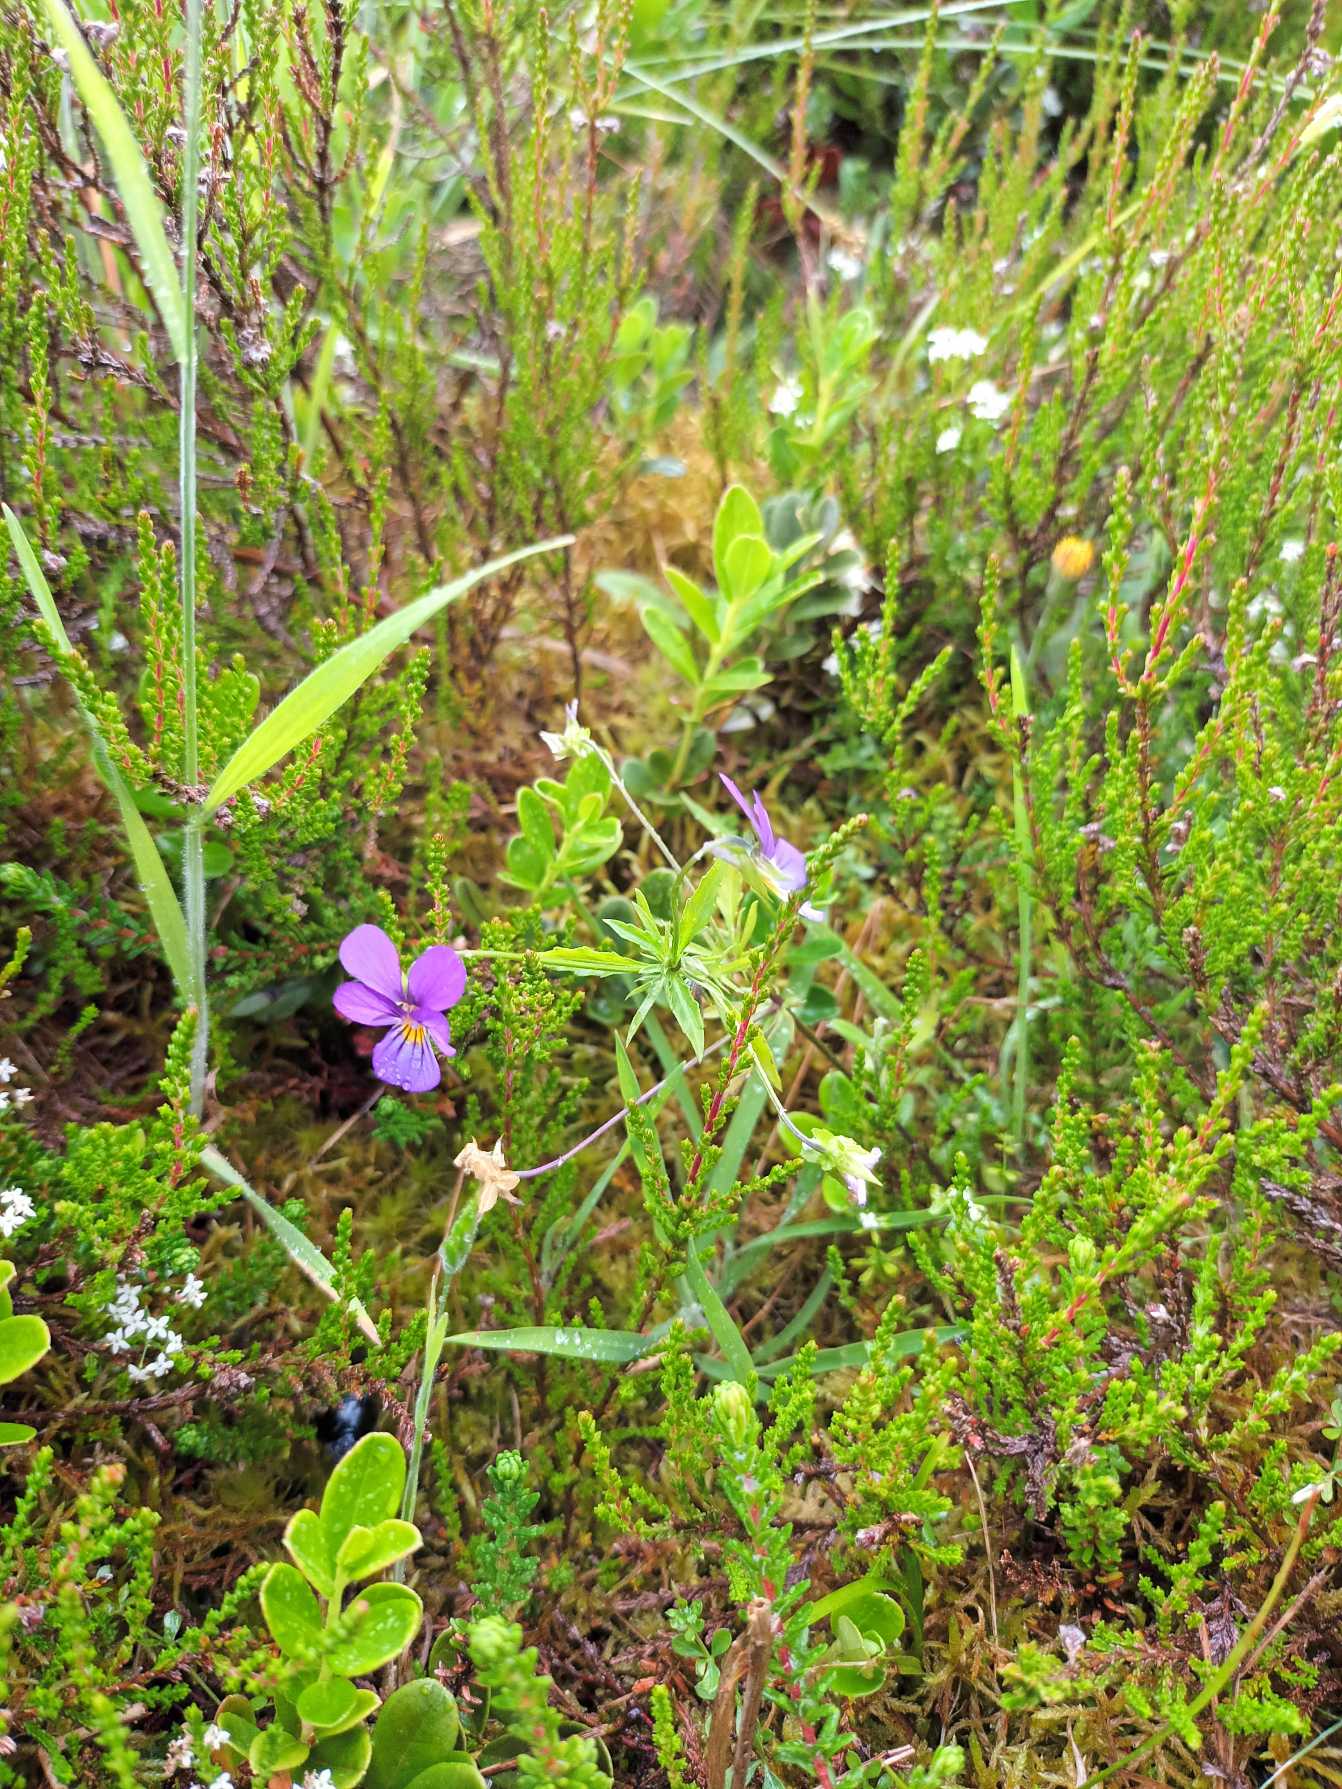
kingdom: Plantae
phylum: Tracheophyta
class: Magnoliopsida
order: Malpighiales
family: Violaceae
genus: Viola
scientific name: Viola tricolor
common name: Stedmoderblomst
